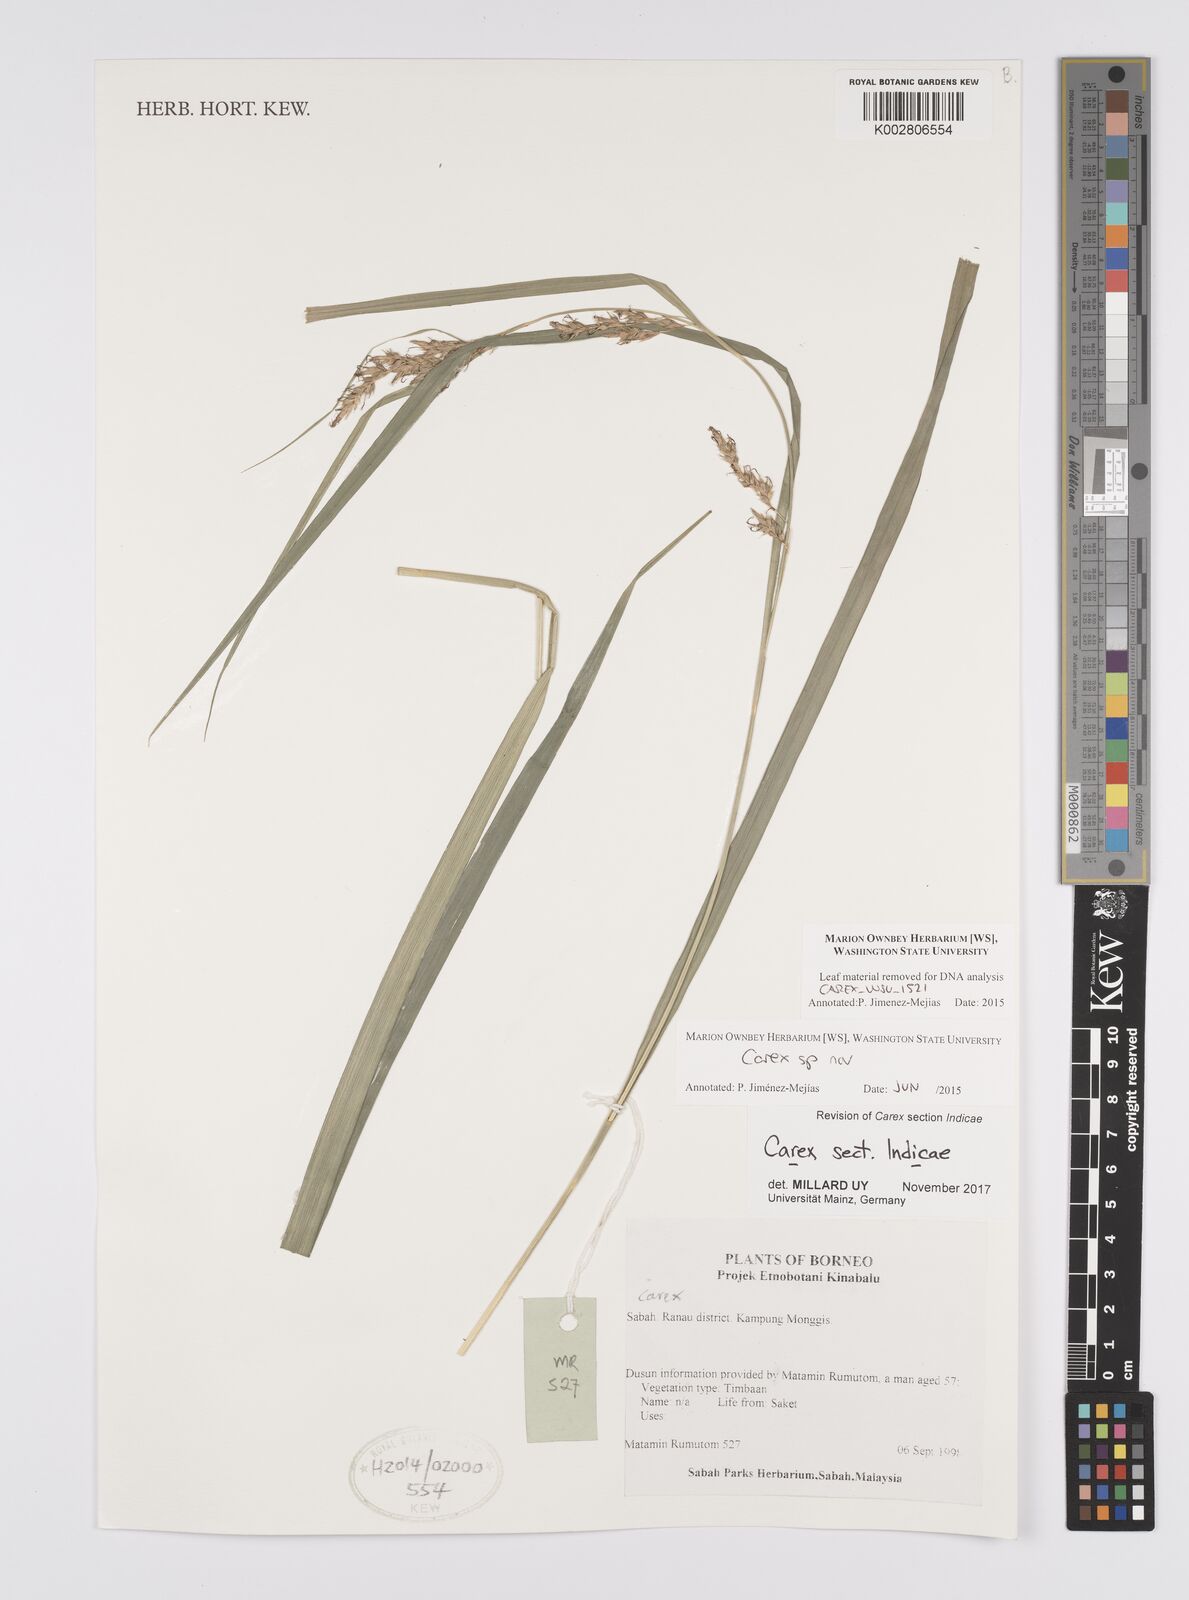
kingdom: Plantae
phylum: Tracheophyta
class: Liliopsida
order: Poales
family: Cyperaceae
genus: Carex
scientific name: Carex
